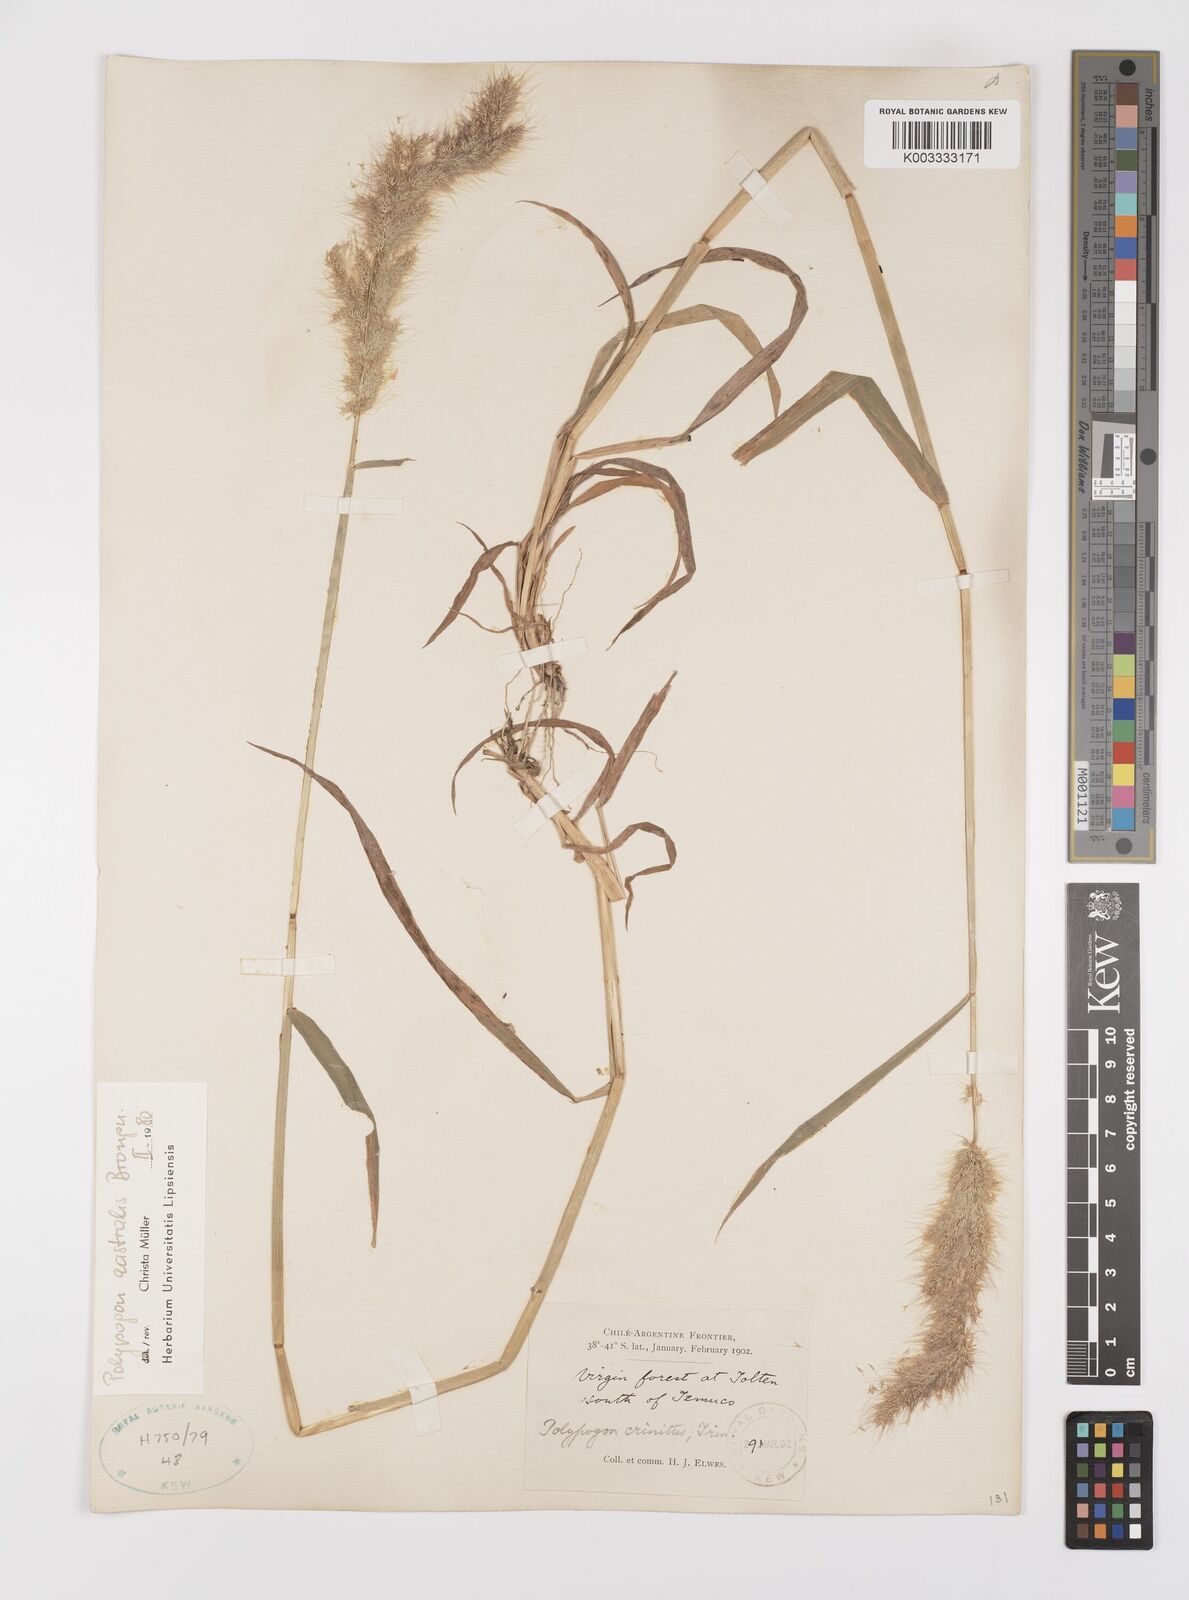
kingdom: Plantae
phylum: Tracheophyta
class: Liliopsida
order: Poales
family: Poaceae
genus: Polypogon
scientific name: Polypogon australis
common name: Chilean rabbitsfoot grass
